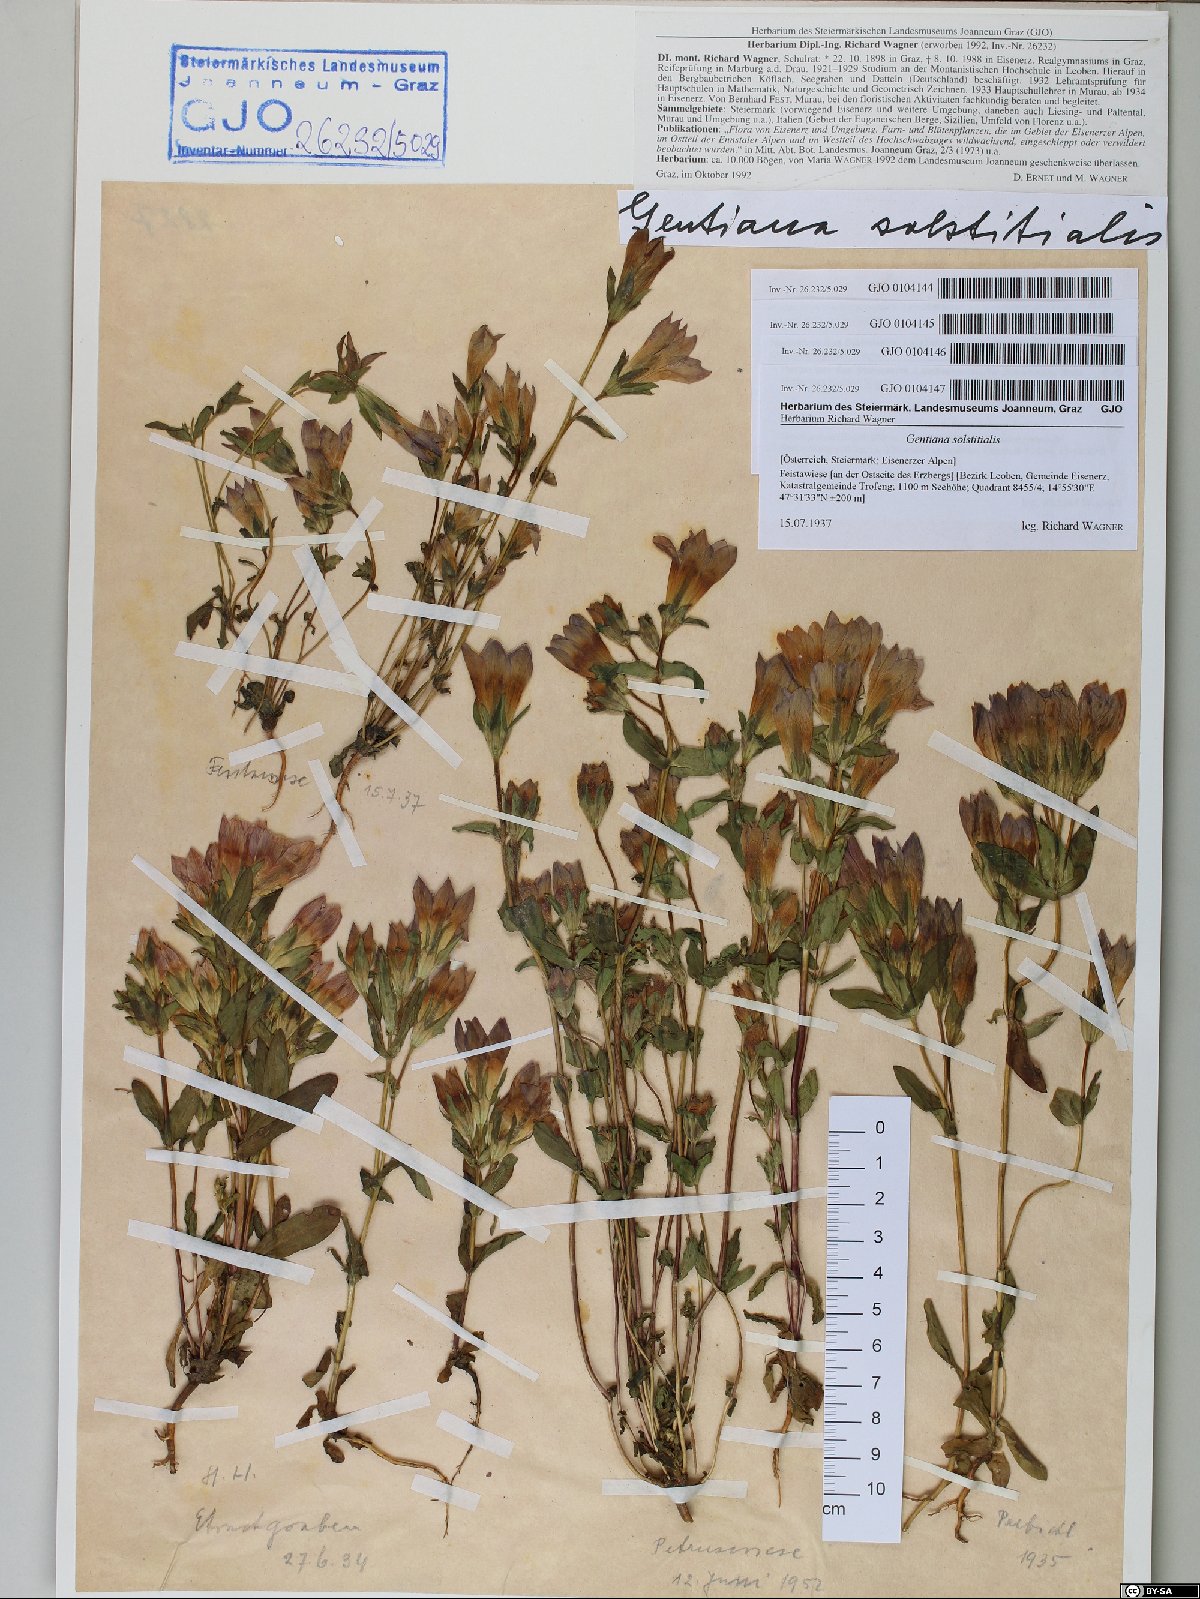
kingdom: Plantae
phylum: Tracheophyta
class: Magnoliopsida
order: Gentianales
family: Gentianaceae
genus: Gentianella
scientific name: Gentianella germanica
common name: Chiltern-gentian
